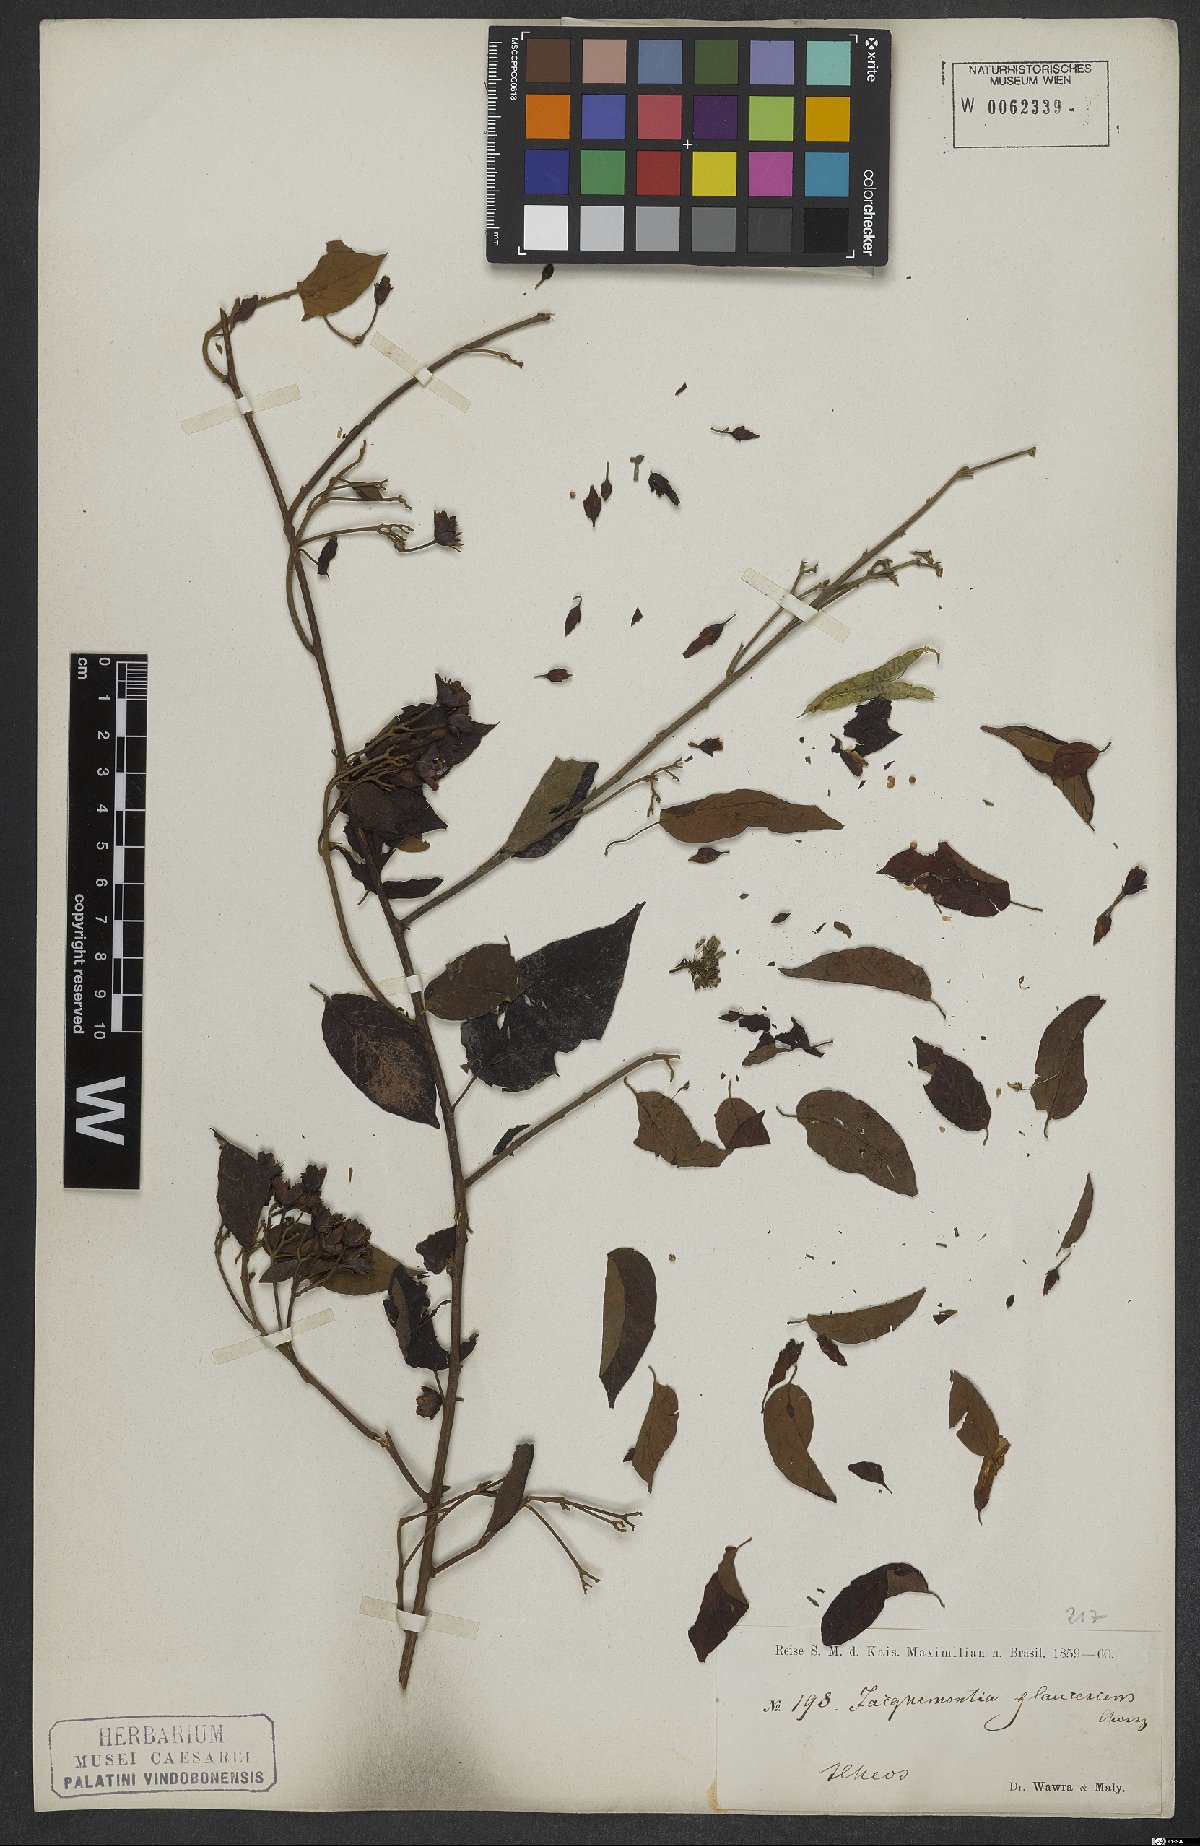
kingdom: Plantae
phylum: Tracheophyta
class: Magnoliopsida
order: Solanales
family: Convolvulaceae
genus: Jacquemontia
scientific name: Jacquemontia glaucescens
